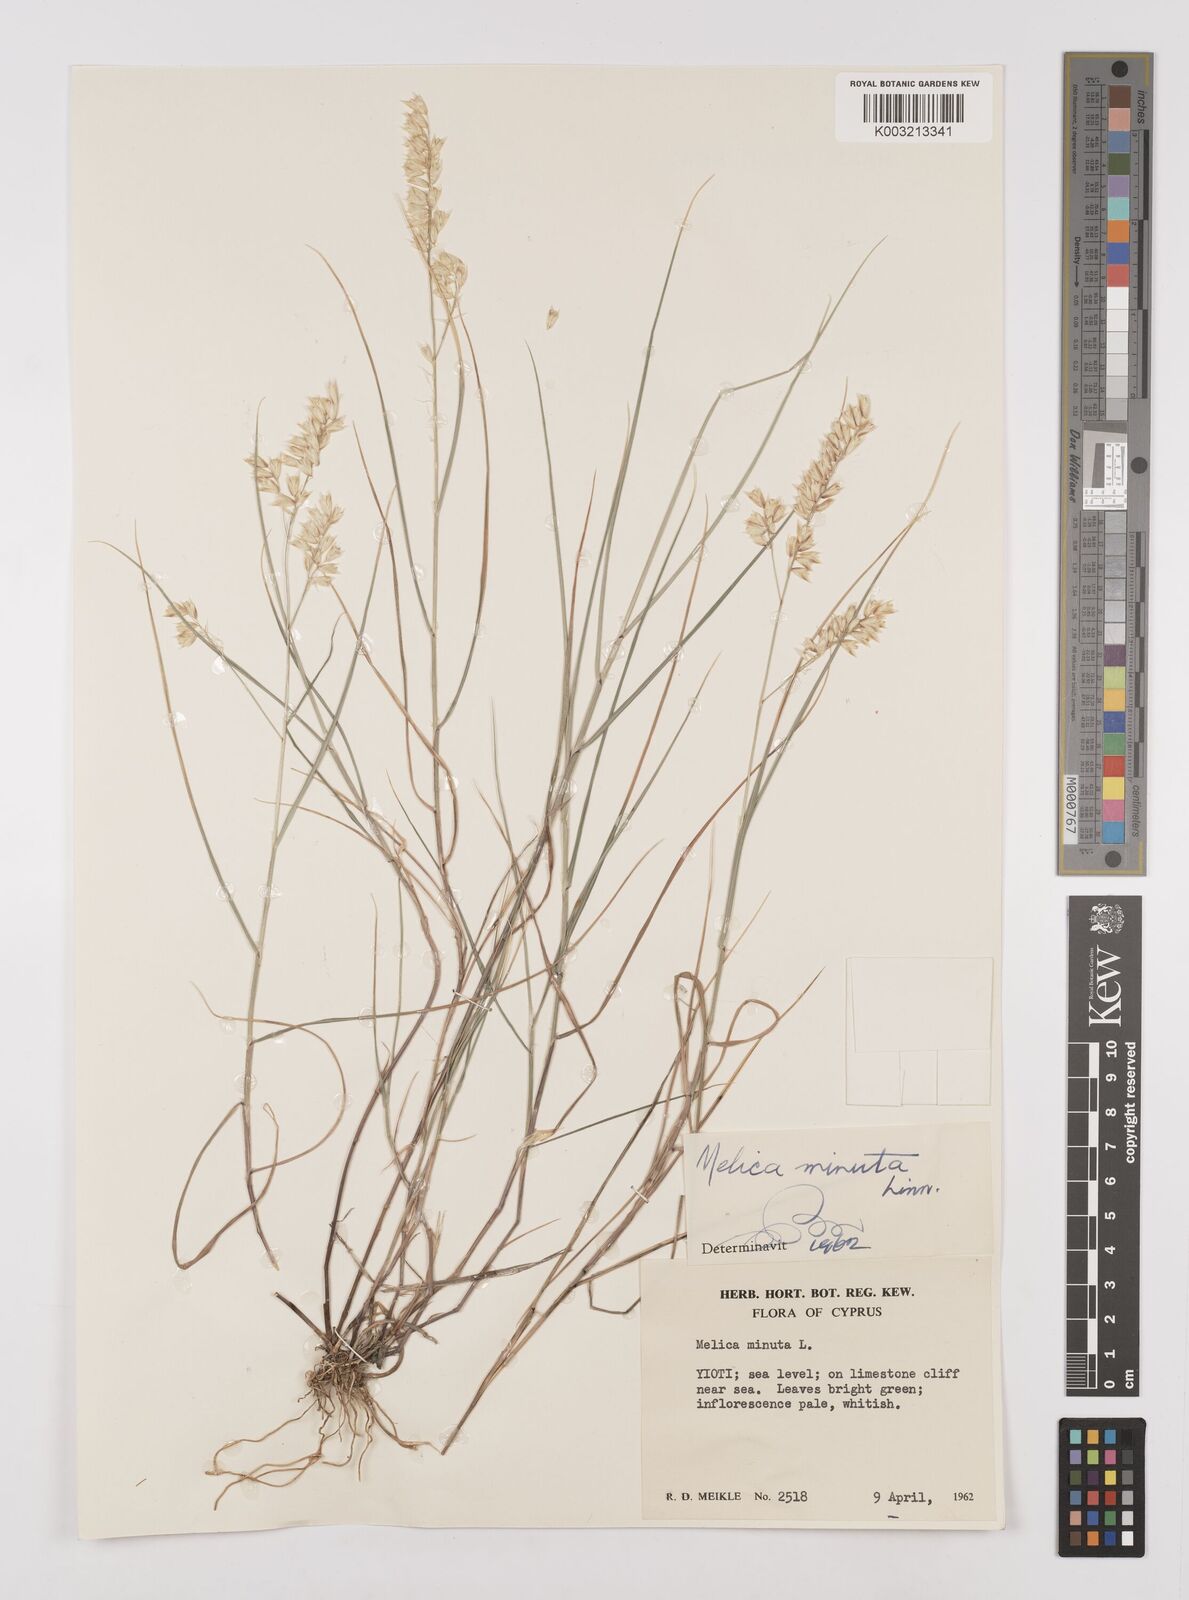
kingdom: Plantae
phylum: Tracheophyta
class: Liliopsida
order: Poales
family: Poaceae
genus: Melica
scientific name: Melica minuta
